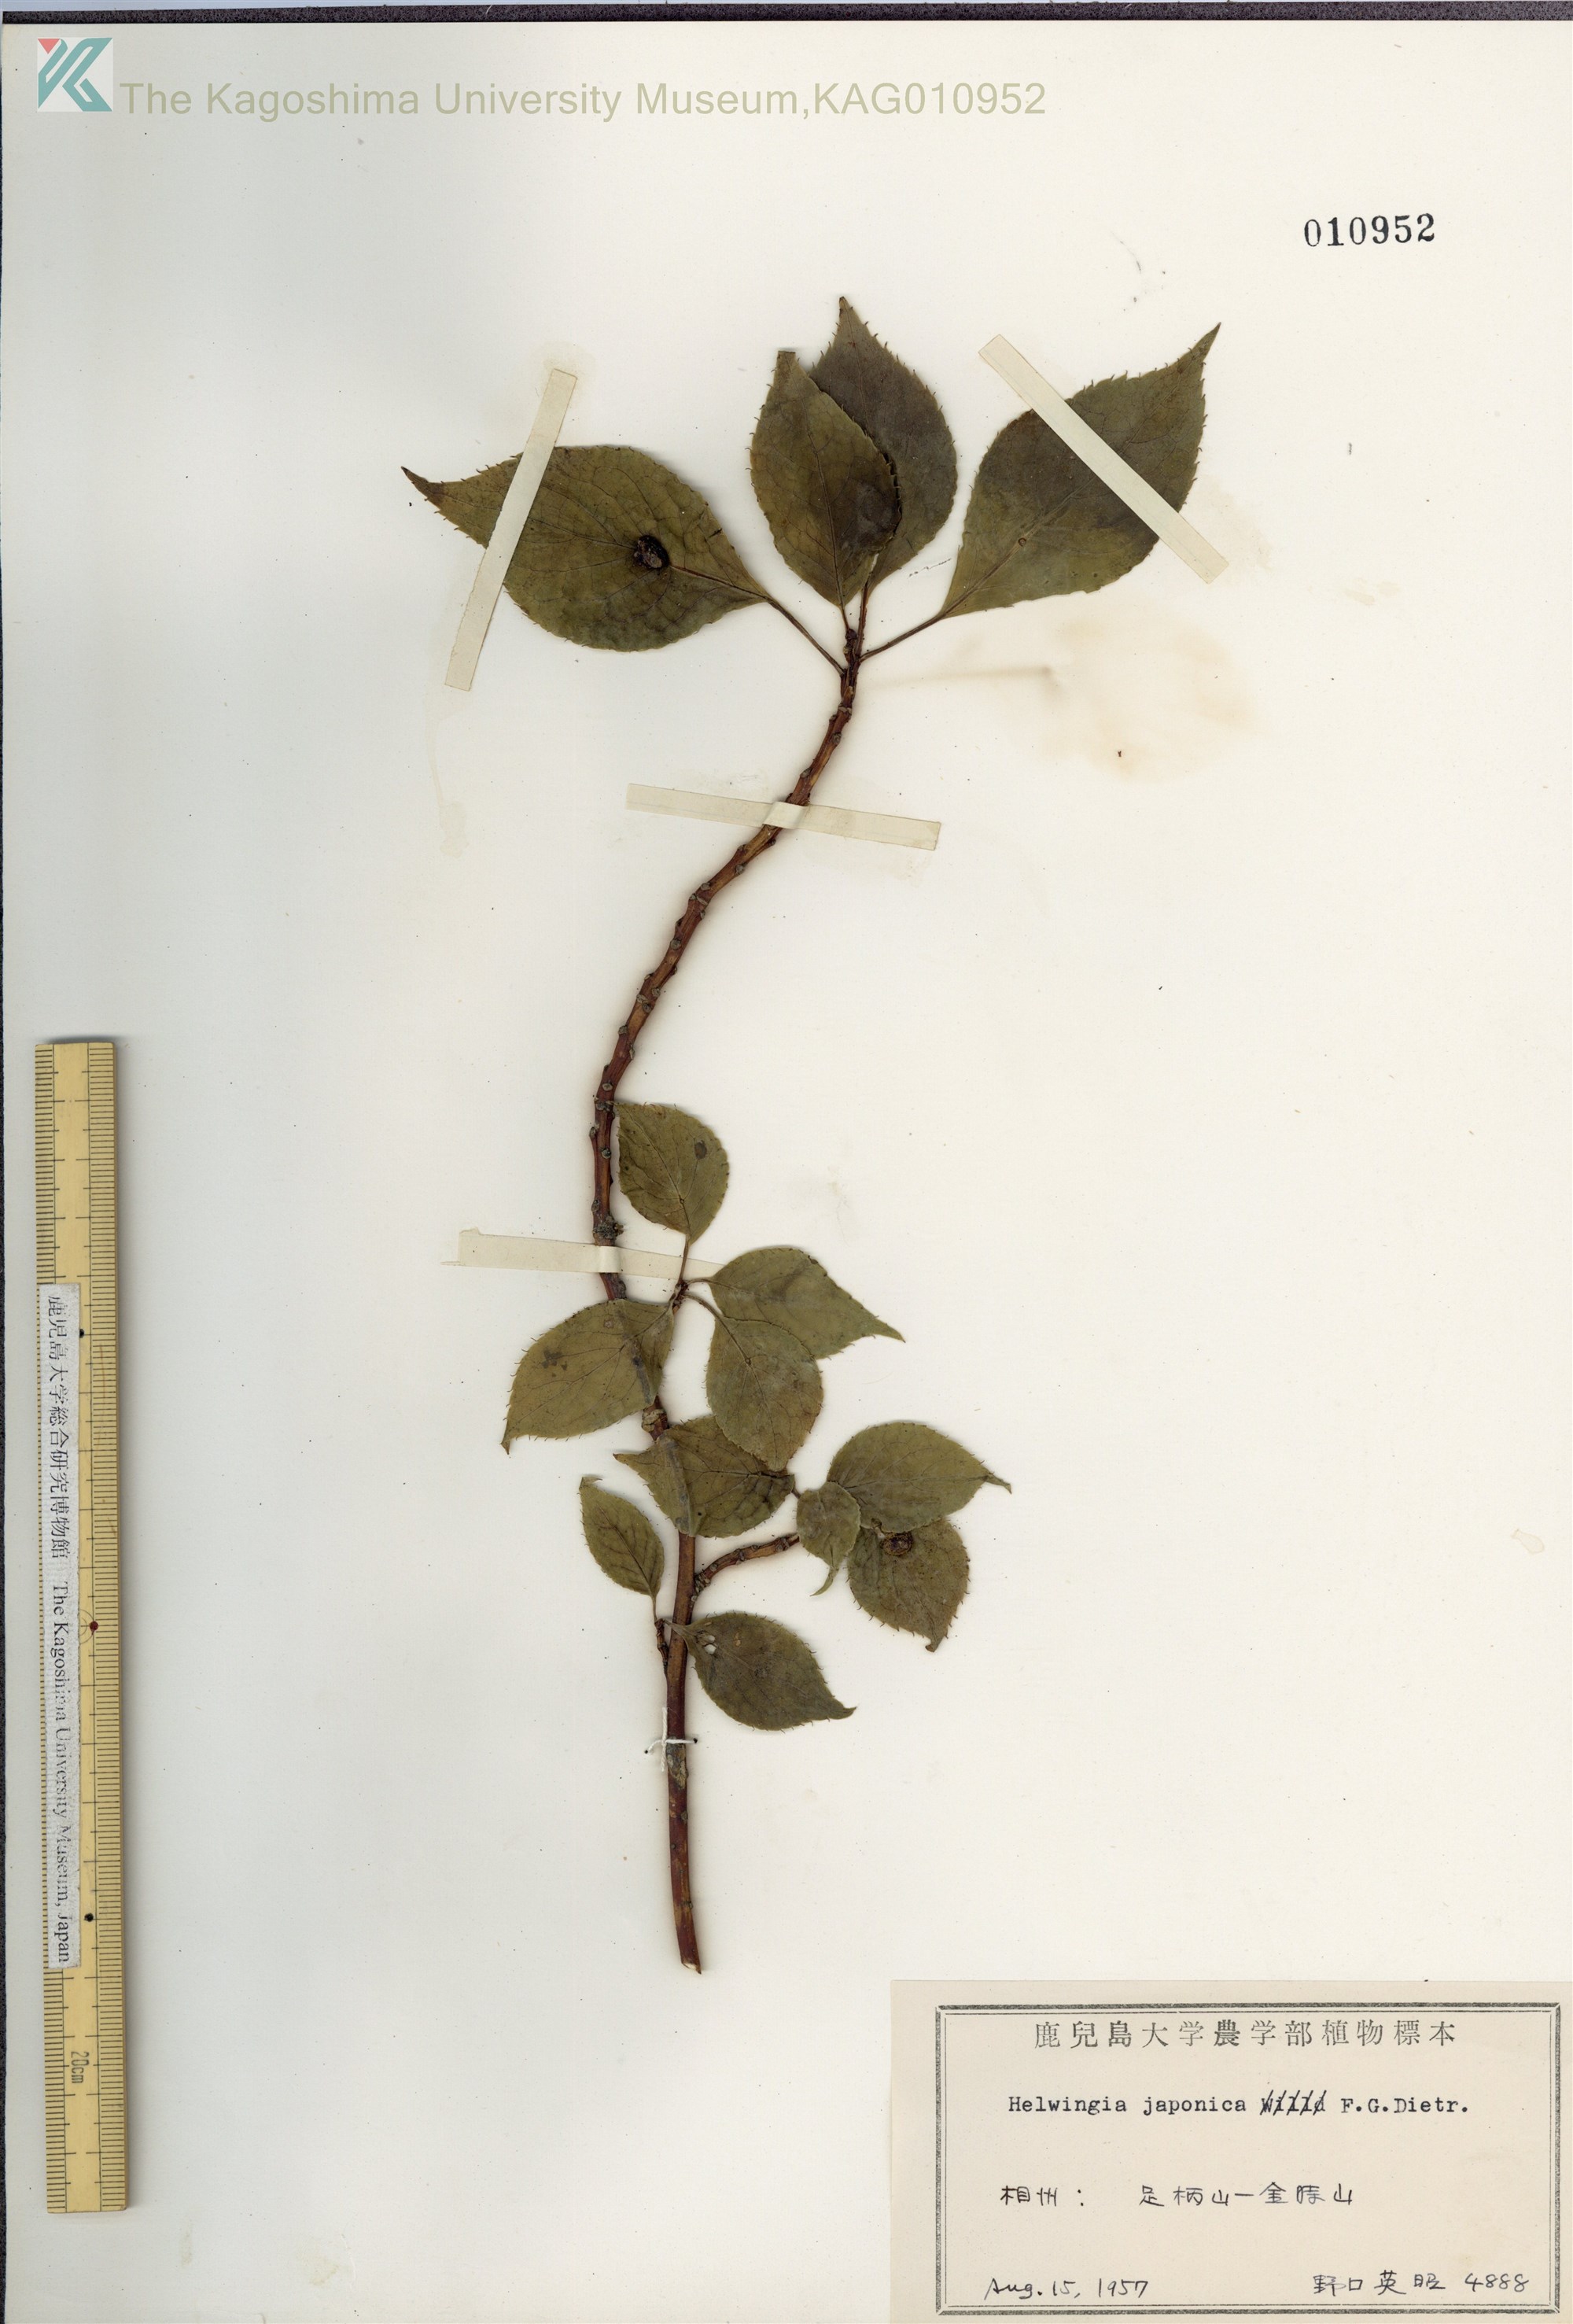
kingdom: Plantae
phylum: Tracheophyta
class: Magnoliopsida
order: Aquifoliales
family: Helwingiaceae
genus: Helwingia
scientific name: Helwingia japonica
